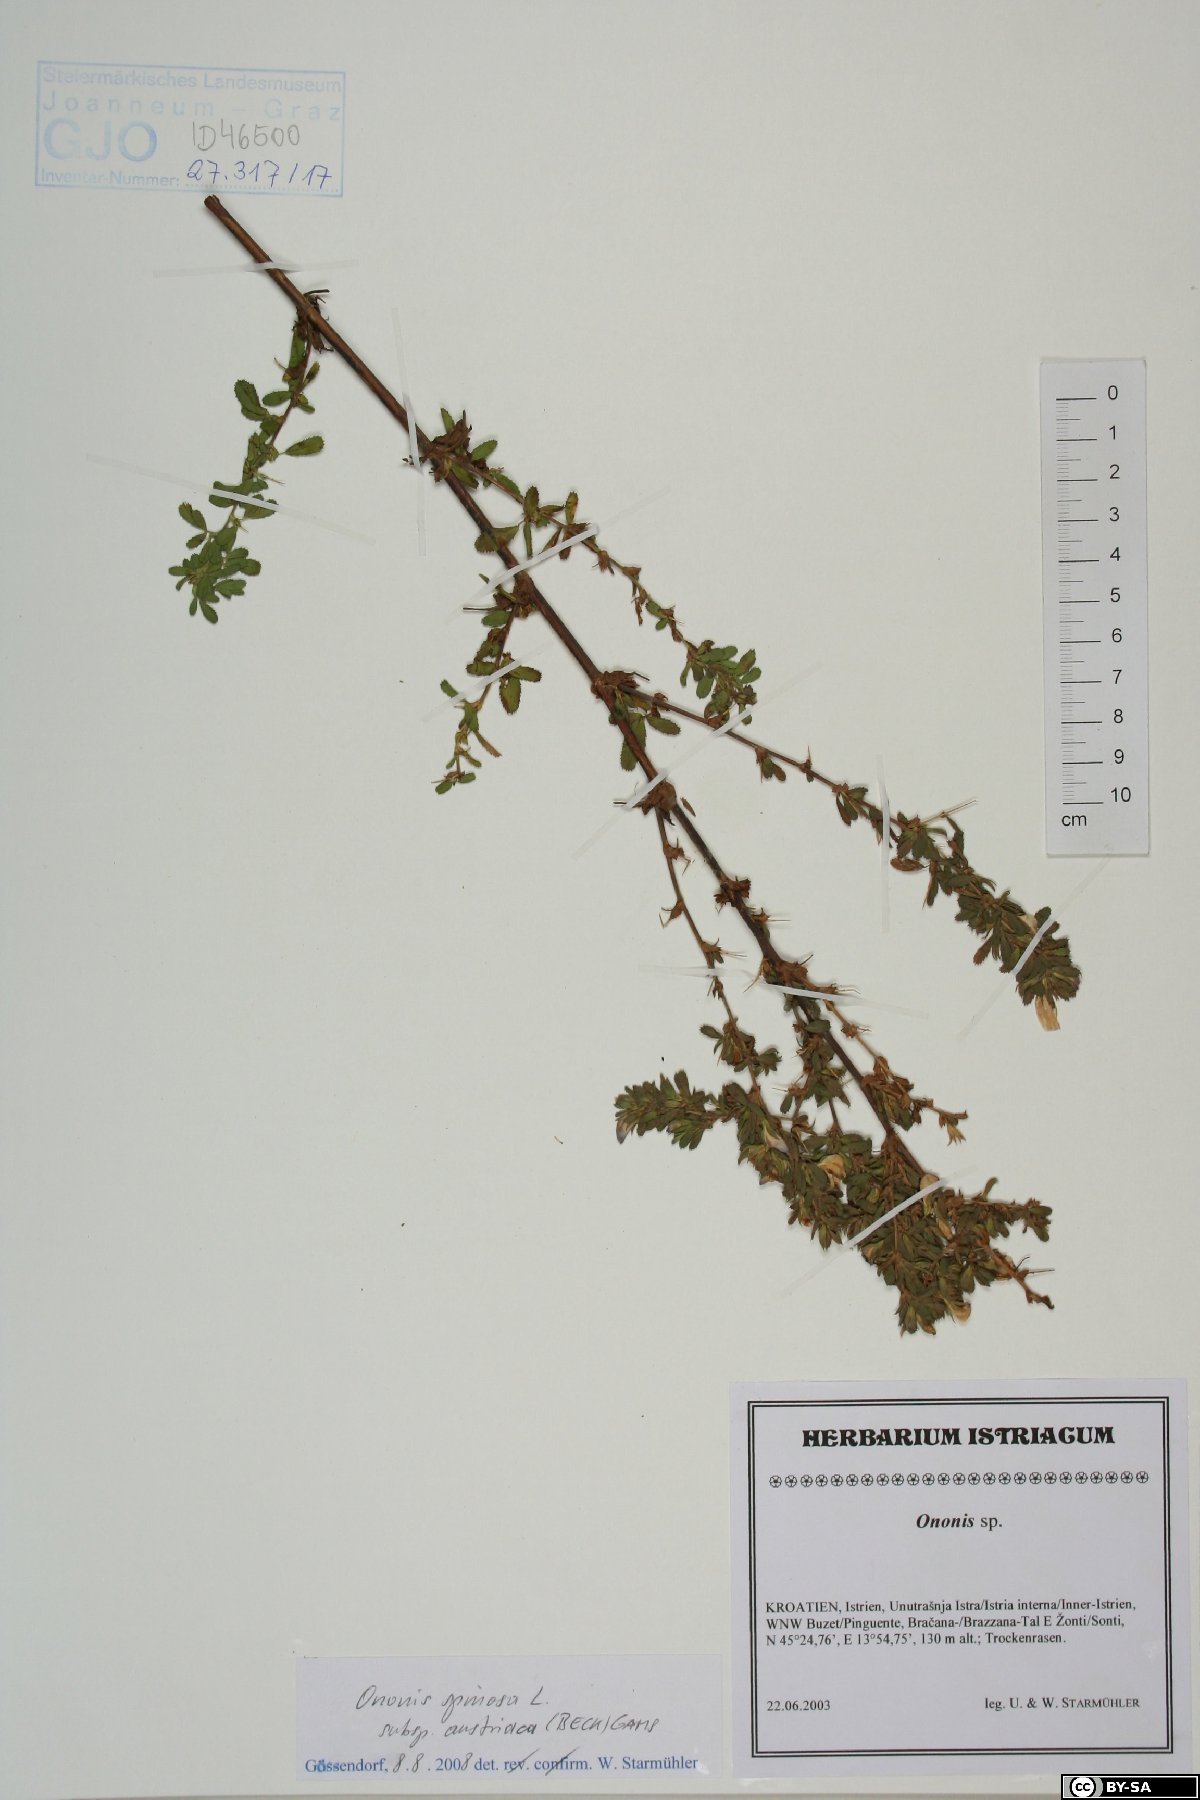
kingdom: Plantae
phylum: Tracheophyta
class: Magnoliopsida
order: Fabales
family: Fabaceae
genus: Ononis
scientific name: Ononis spinosa
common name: Spiny restharrow
